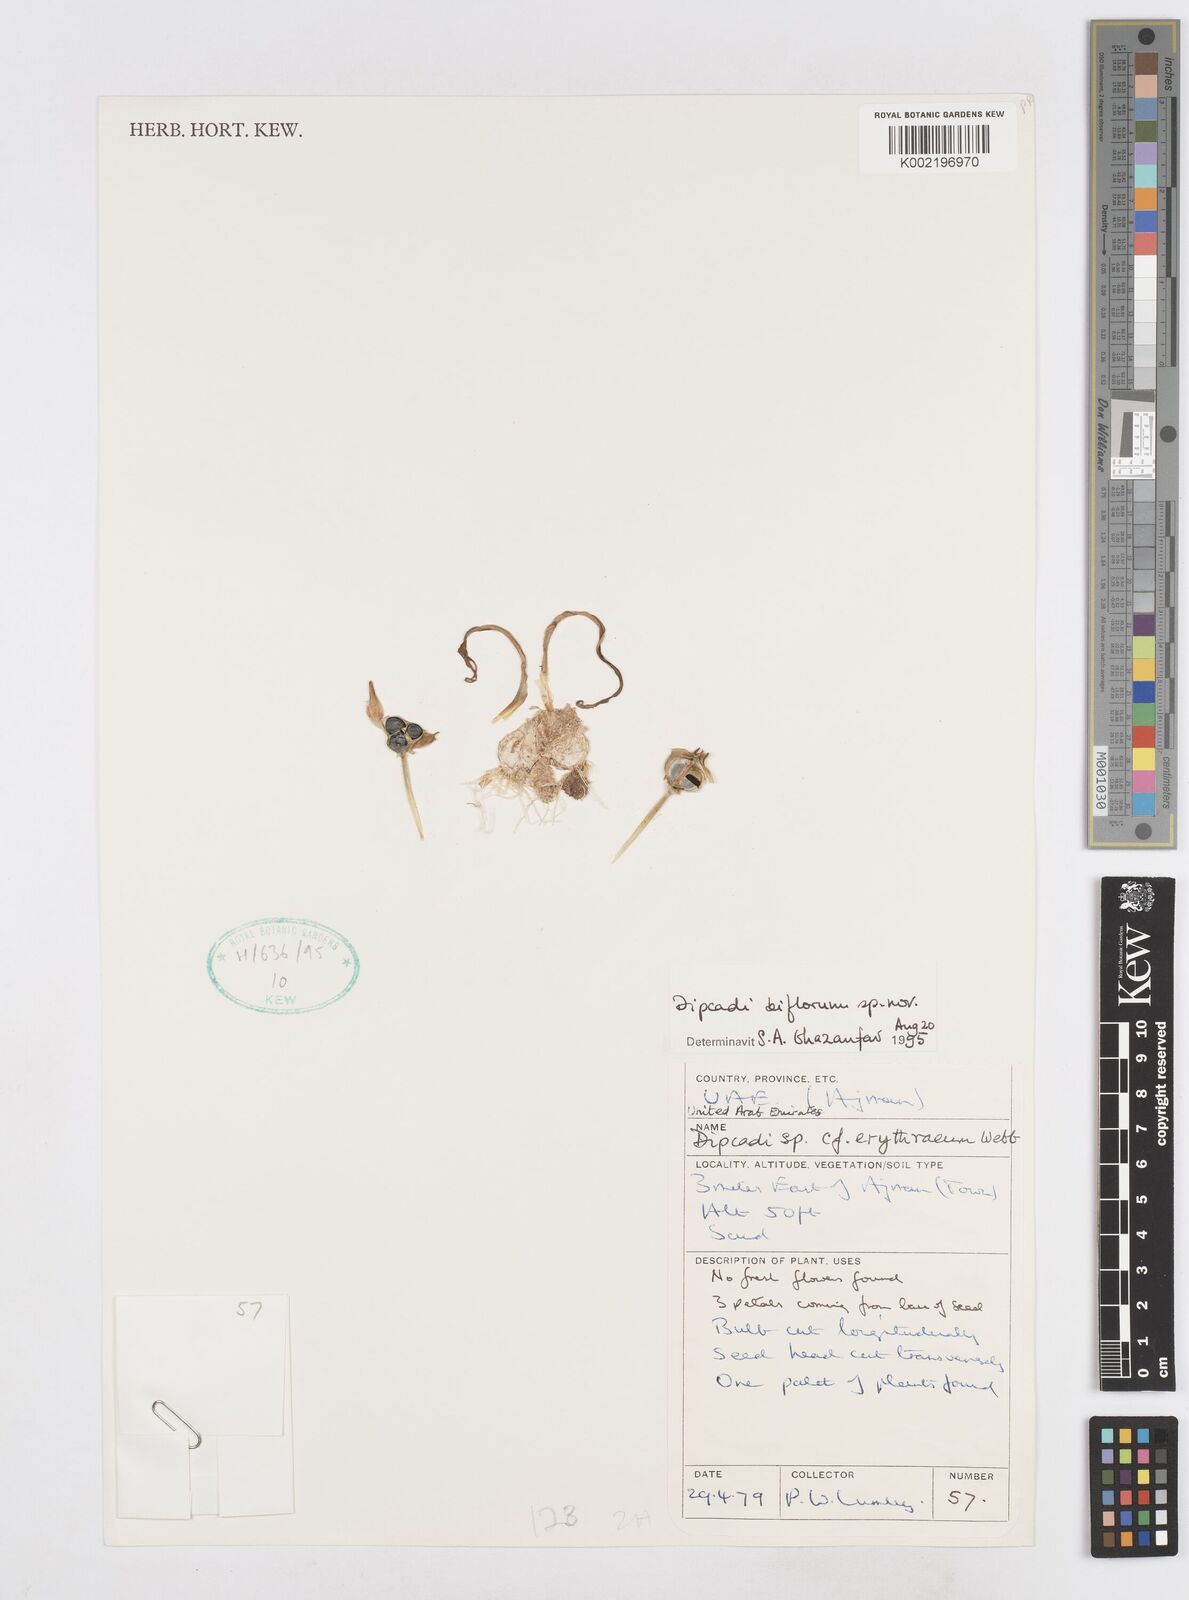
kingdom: Plantae
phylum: Tracheophyta
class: Liliopsida
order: Asparagales
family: Asparagaceae
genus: Dipcadi
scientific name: Dipcadi biflorum
